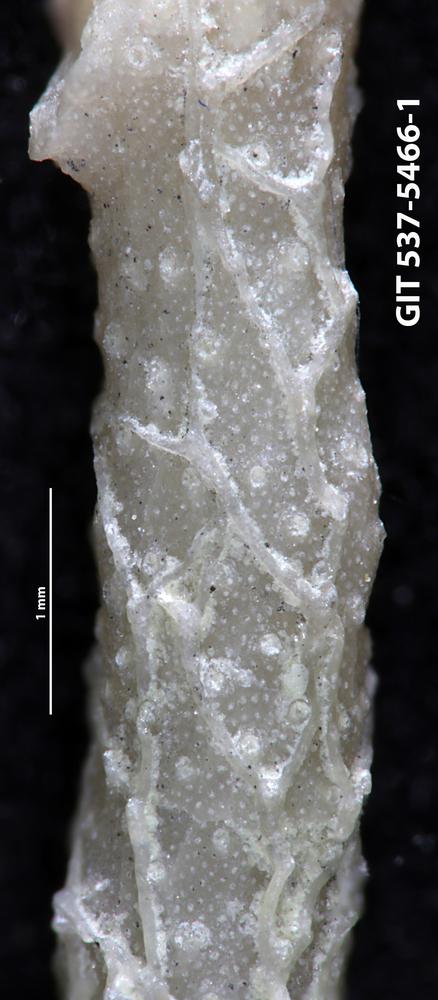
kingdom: Animalia
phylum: Bryozoa
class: Stenolaemata
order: Cyclostomatida
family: Corynotrypidae
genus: Corynotrypa
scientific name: Corynotrypa
